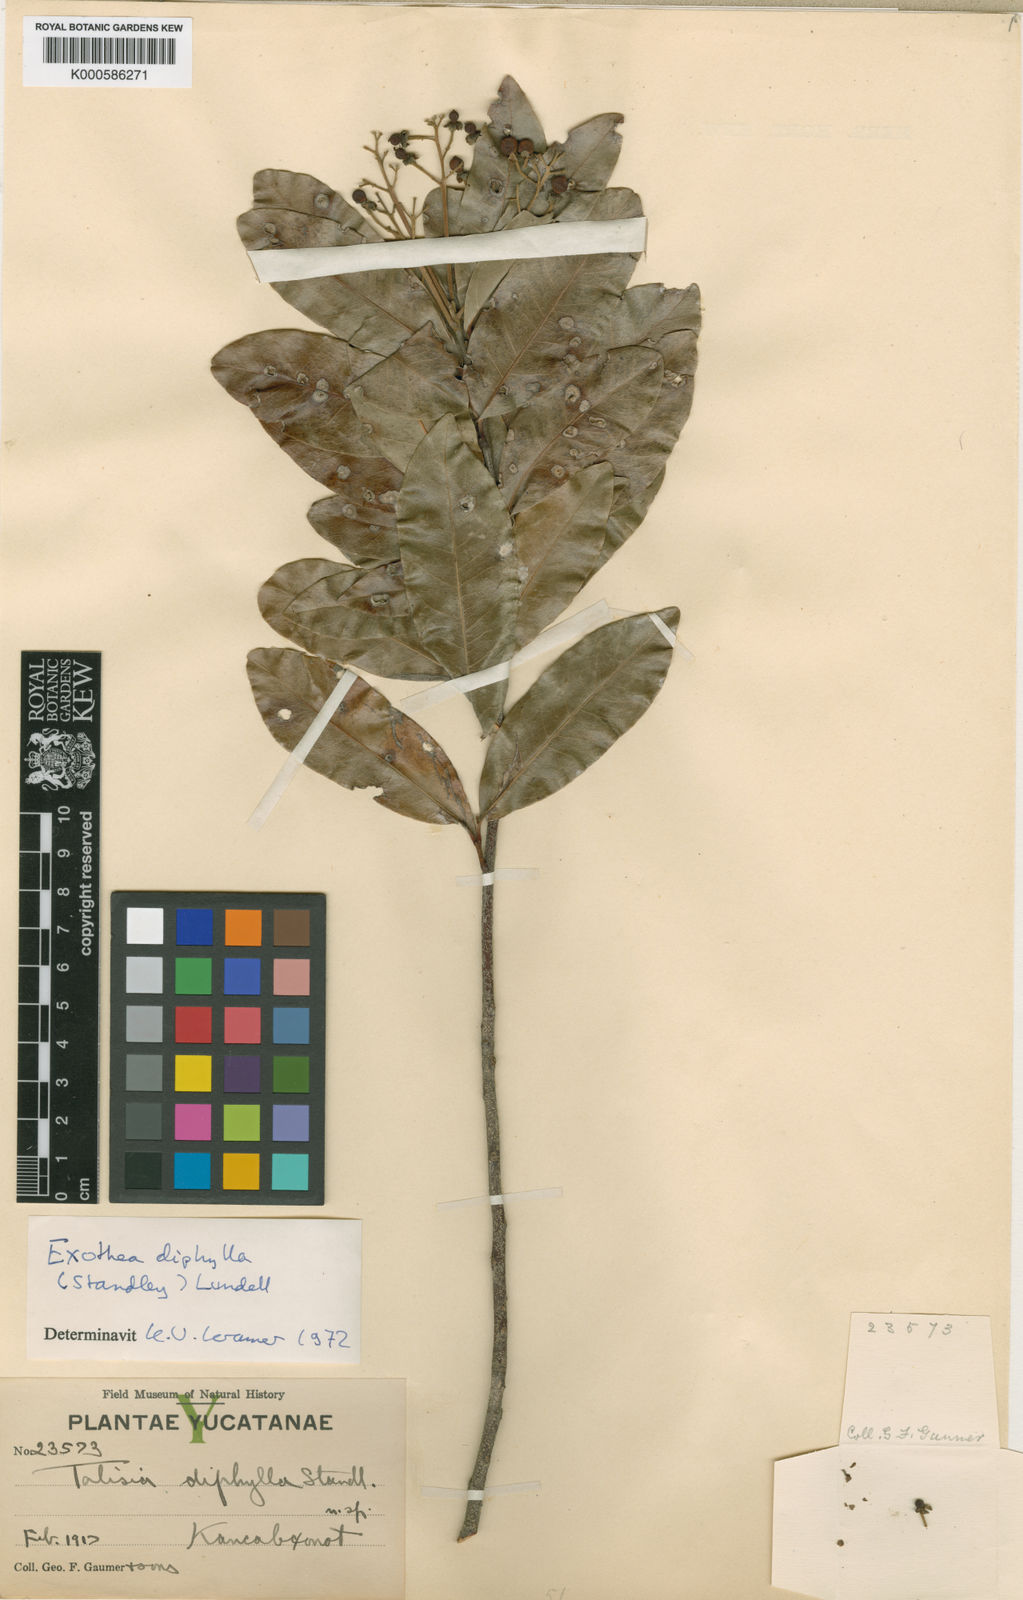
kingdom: Plantae
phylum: Tracheophyta
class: Magnoliopsida
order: Sapindales
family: Sapindaceae
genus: Exothea
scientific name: Exothea diphylla
